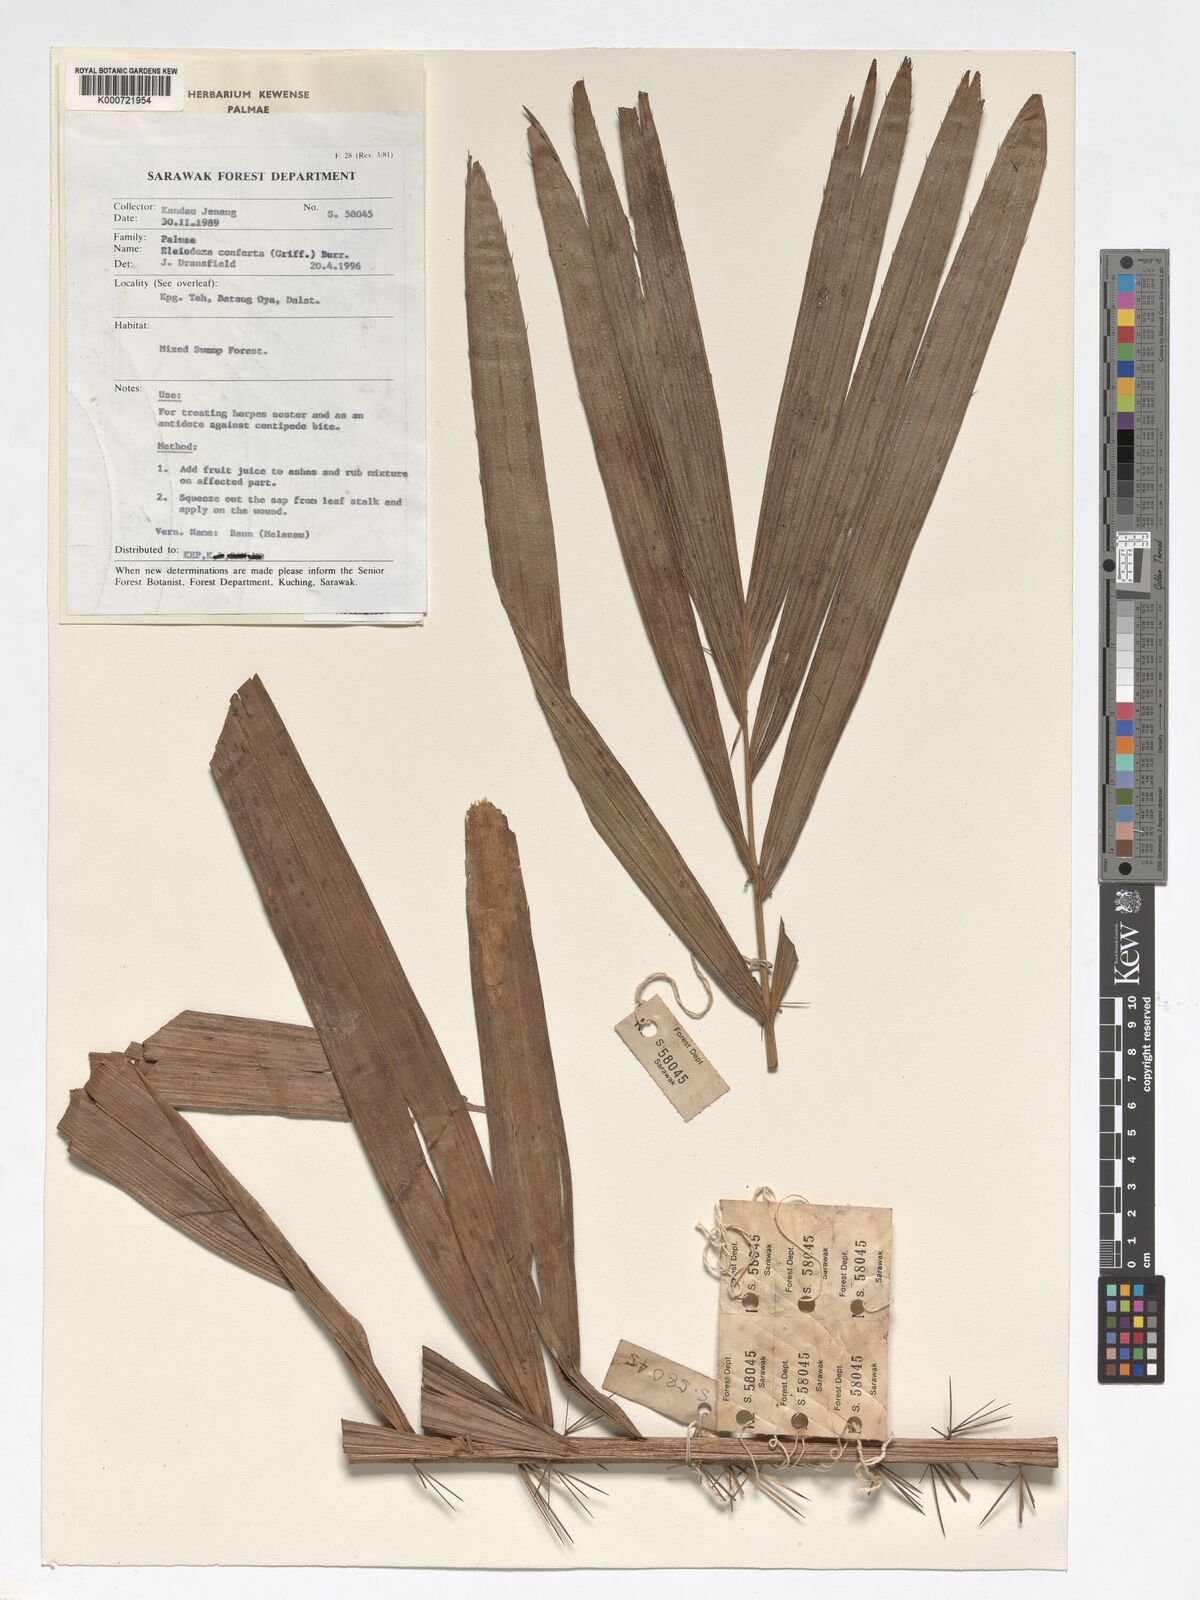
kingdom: Plantae
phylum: Tracheophyta
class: Liliopsida
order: Arecales
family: Arecaceae
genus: Eleiodoxa
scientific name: Eleiodoxa conferta
